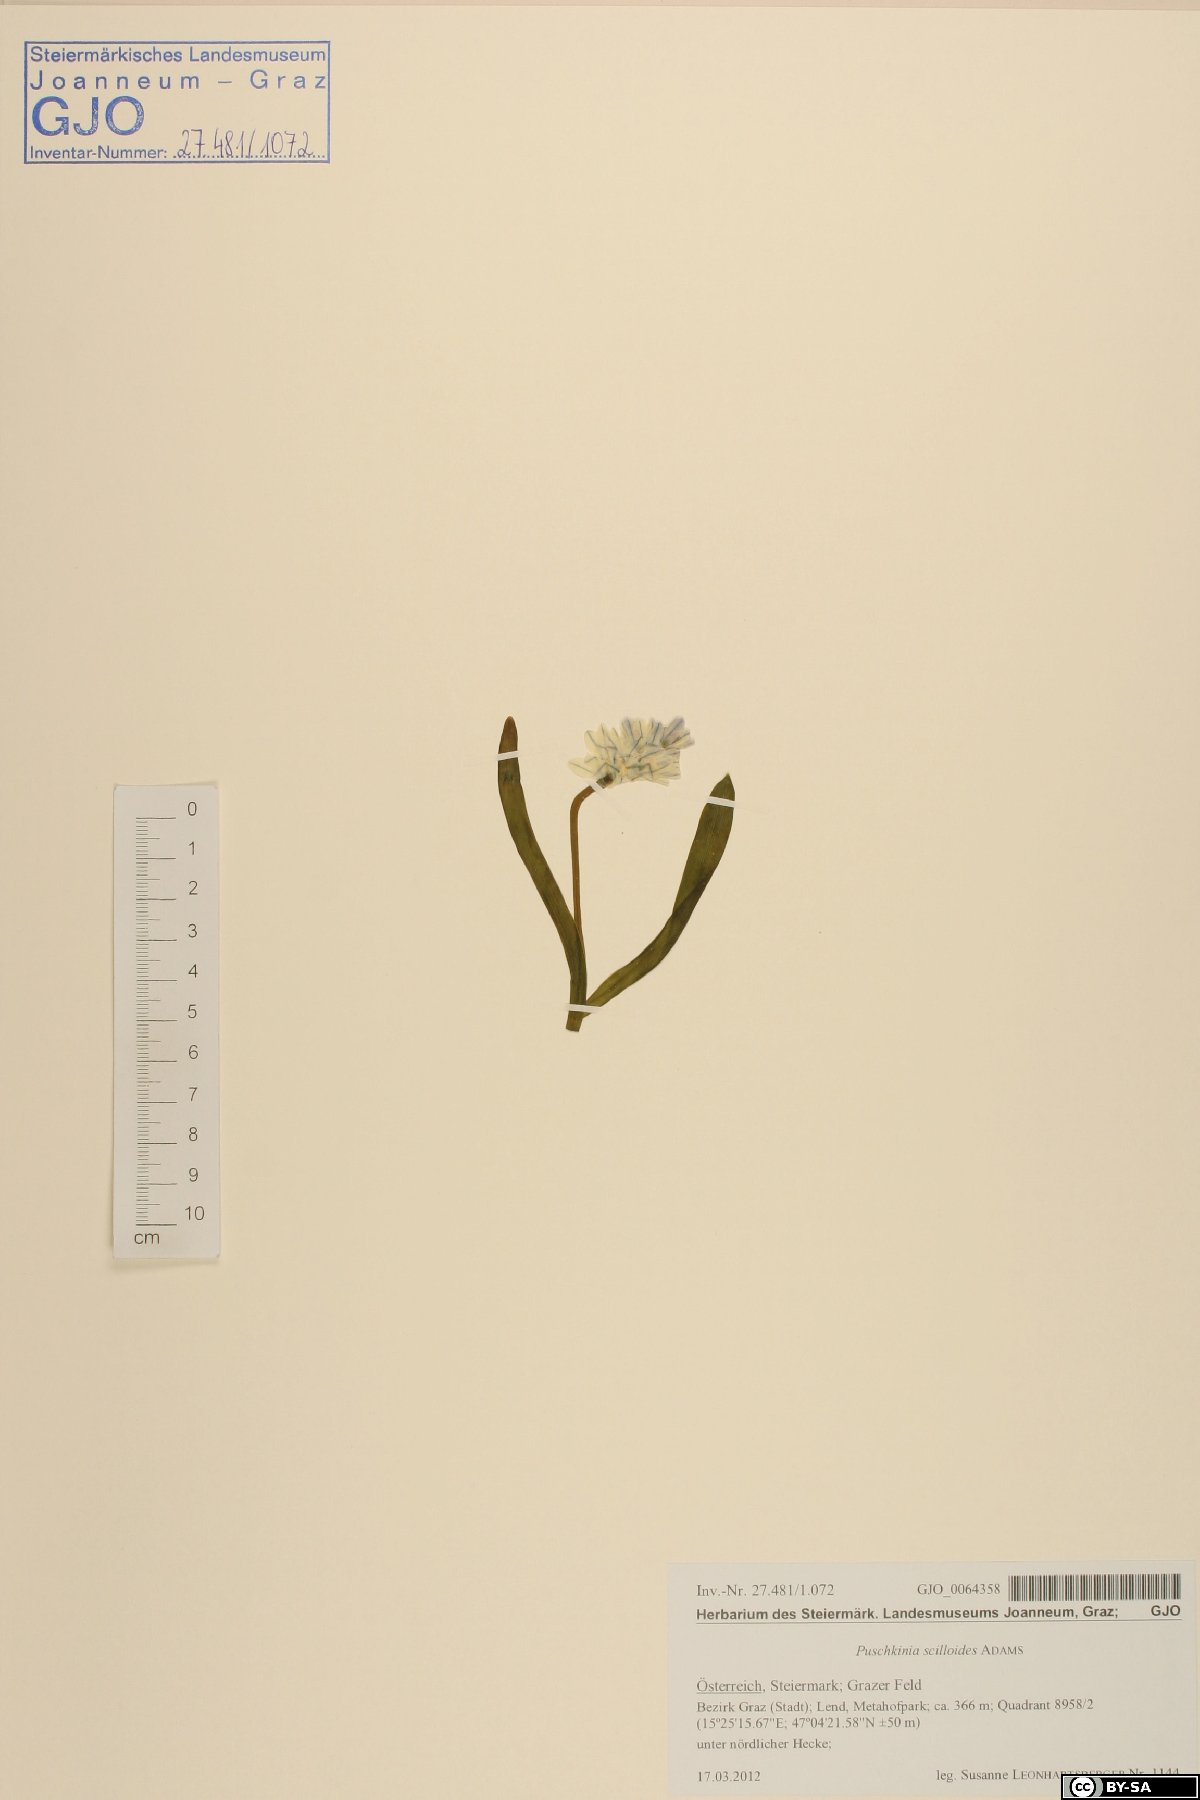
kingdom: Plantae
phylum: Tracheophyta
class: Liliopsida
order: Asparagales
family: Asparagaceae
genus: Puschkinia
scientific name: Puschkinia scilloides
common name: Striped squill
